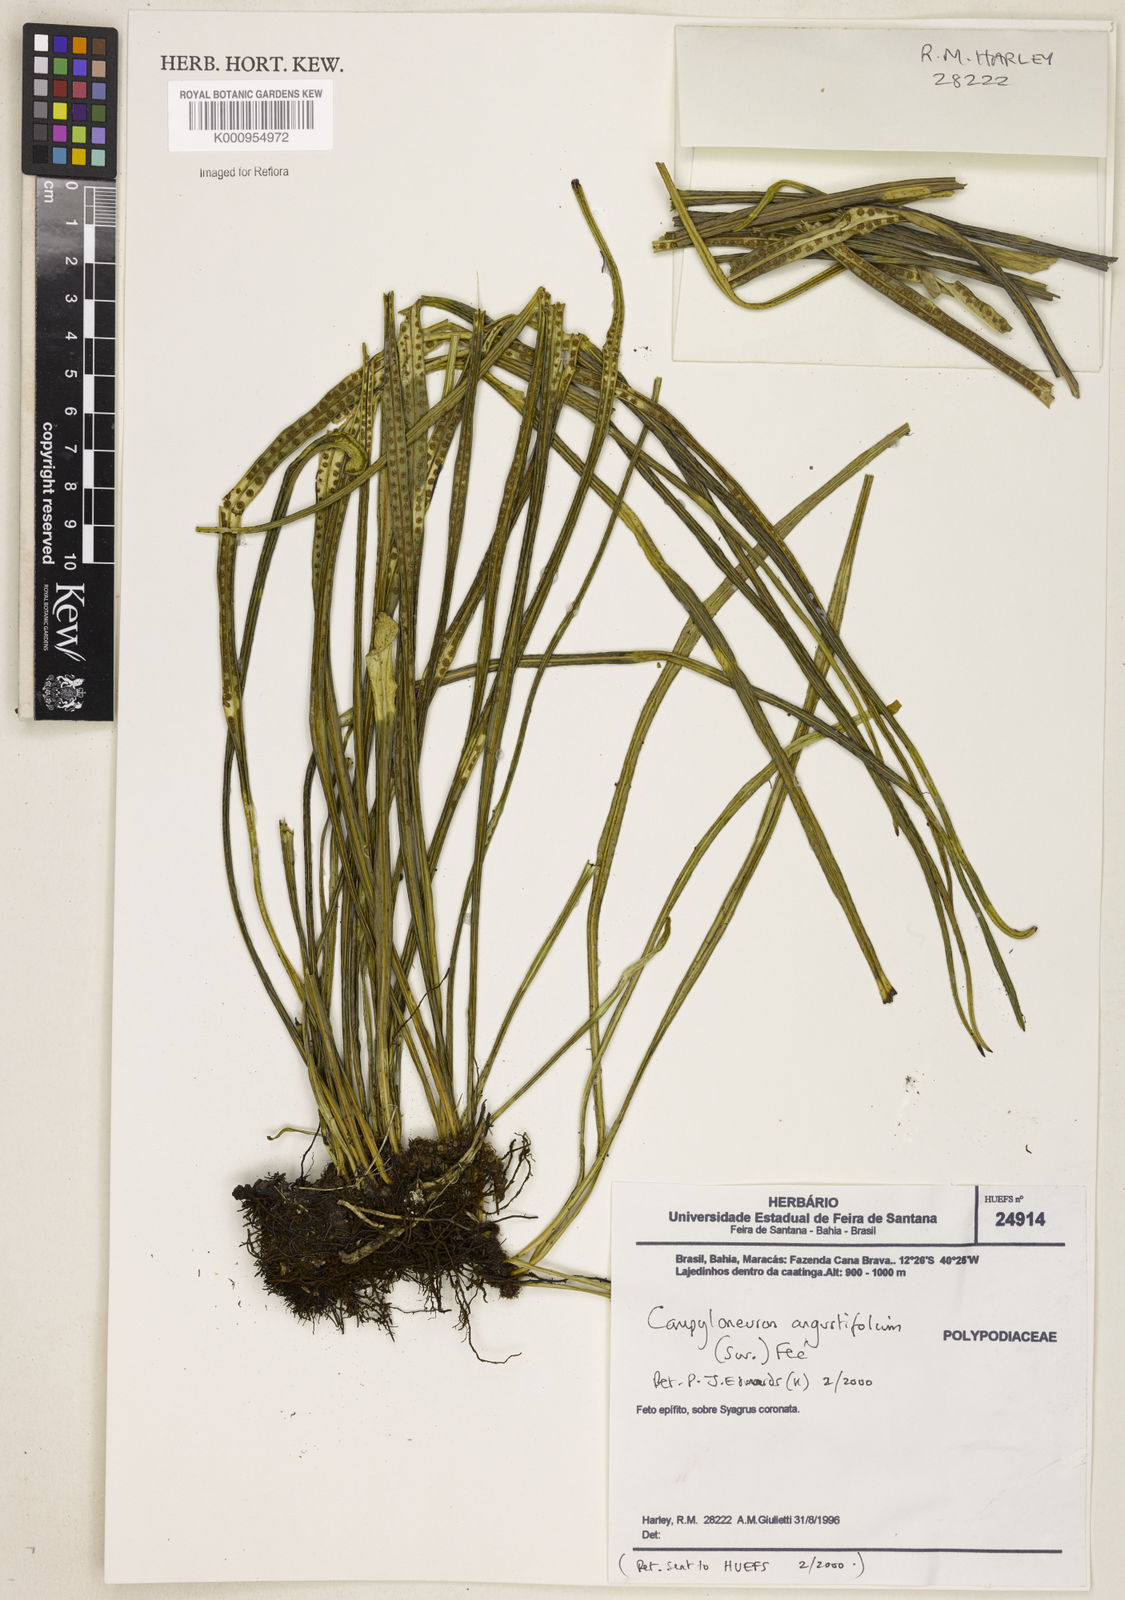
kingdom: Plantae
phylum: Tracheophyta
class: Polypodiopsida
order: Polypodiales
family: Polypodiaceae
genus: Campyloneurum
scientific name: Campyloneurum
